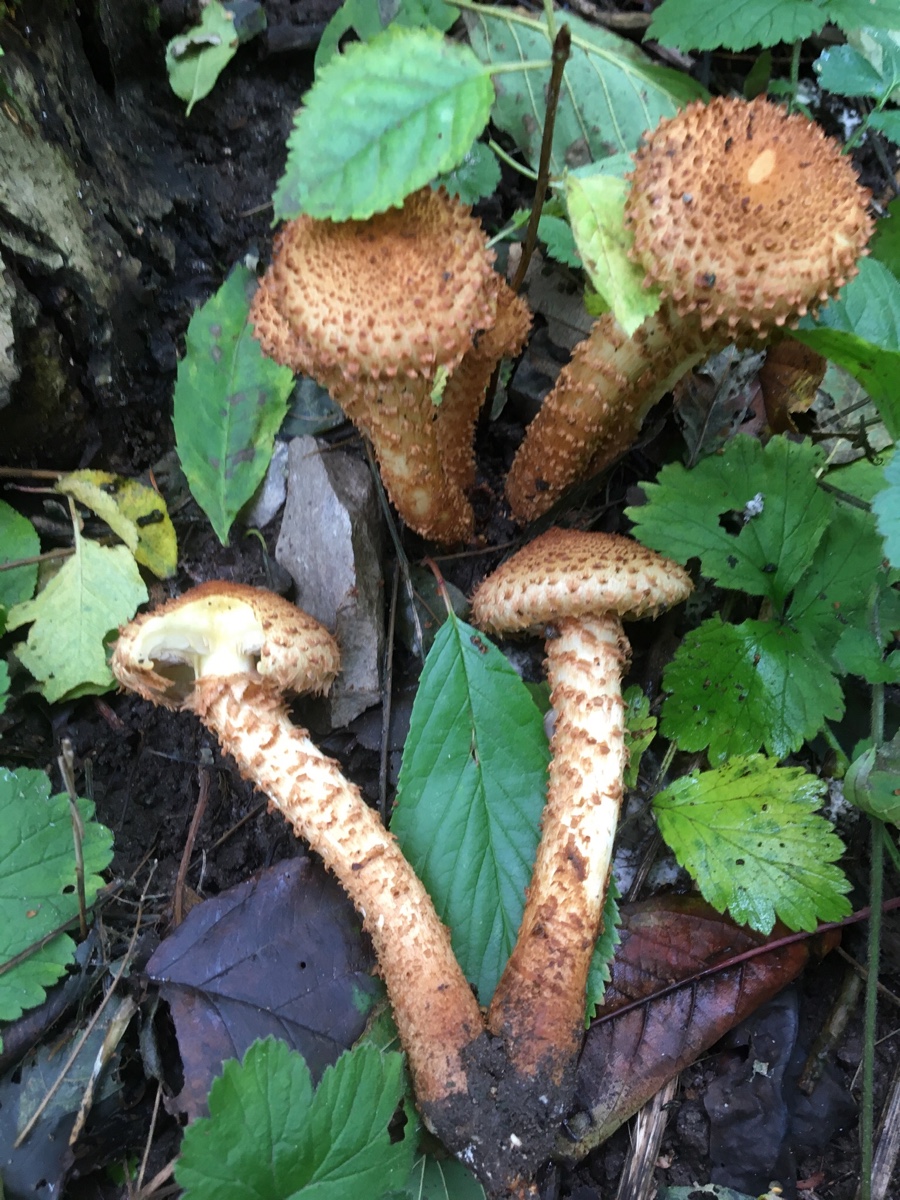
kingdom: Fungi
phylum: Basidiomycota
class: Agaricomycetes
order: Agaricales
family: Strophariaceae
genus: Pholiota
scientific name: Pholiota squarrosa
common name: krumskællet skælhat
